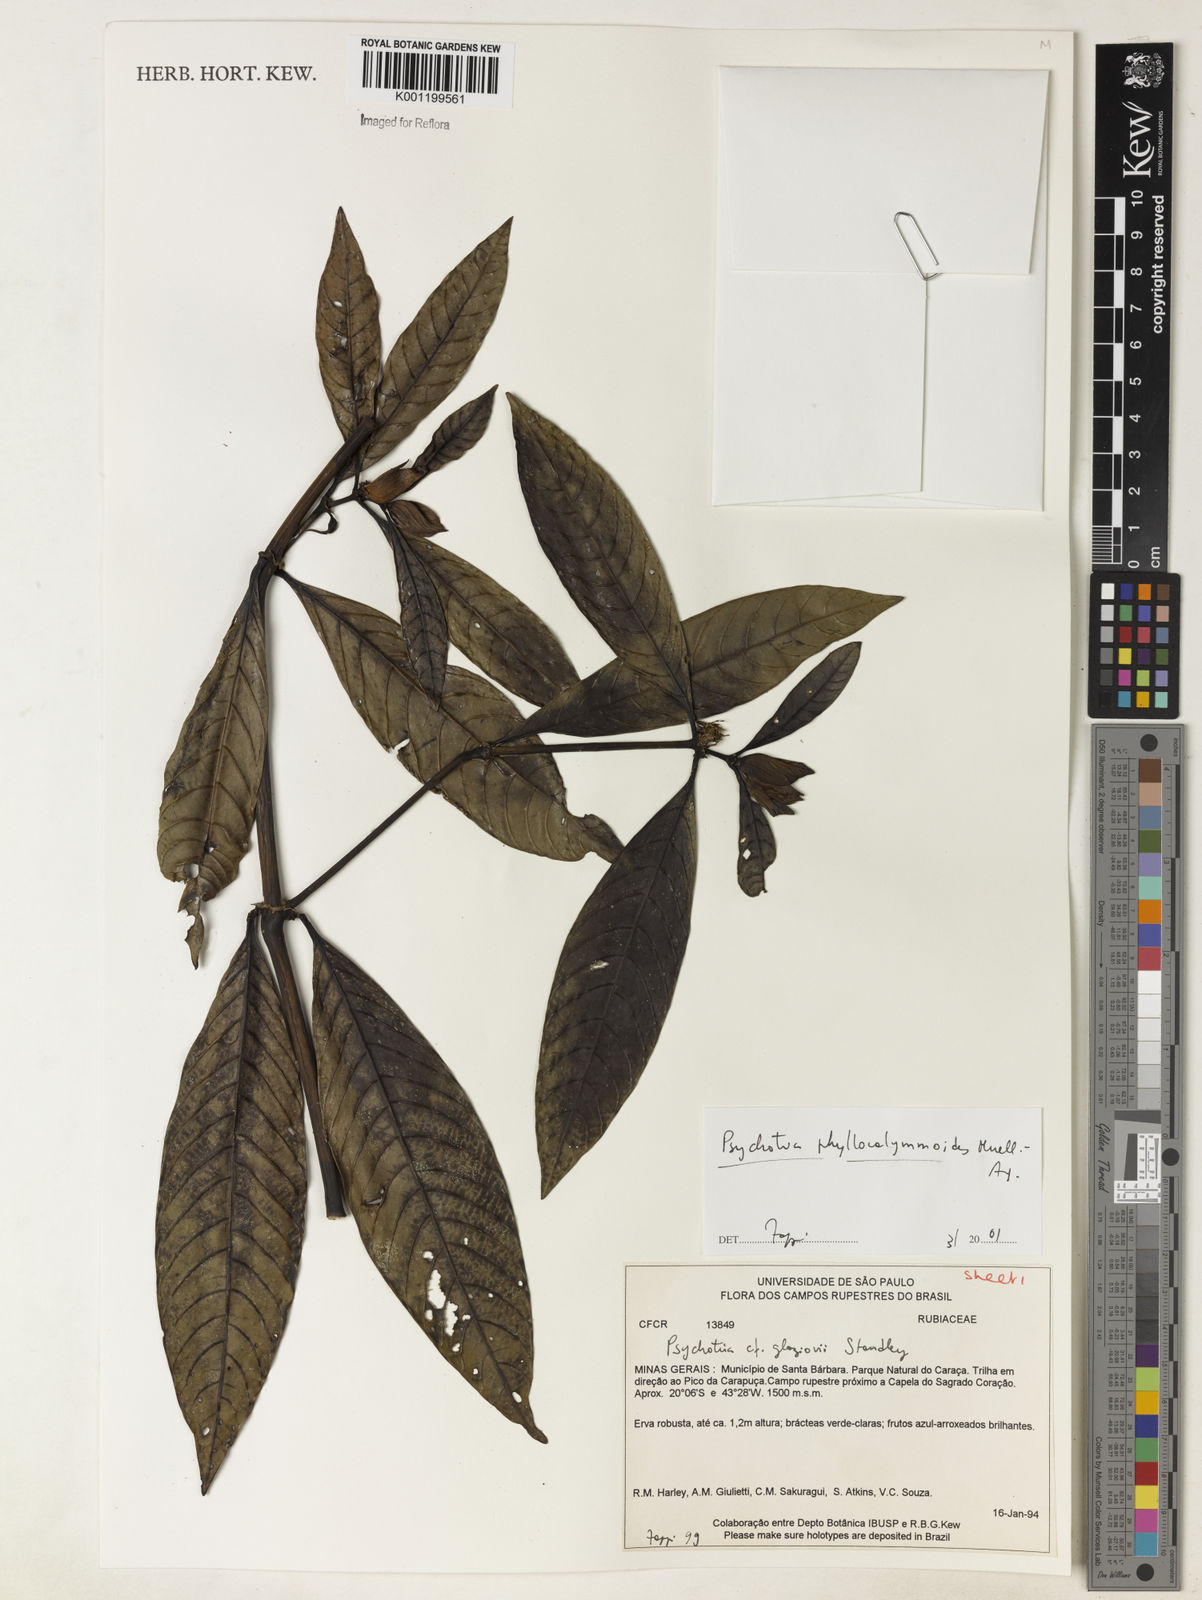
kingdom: Plantae
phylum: Tracheophyta
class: Magnoliopsida
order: Gentianales
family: Rubiaceae
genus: Psychotria
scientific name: Psychotria
